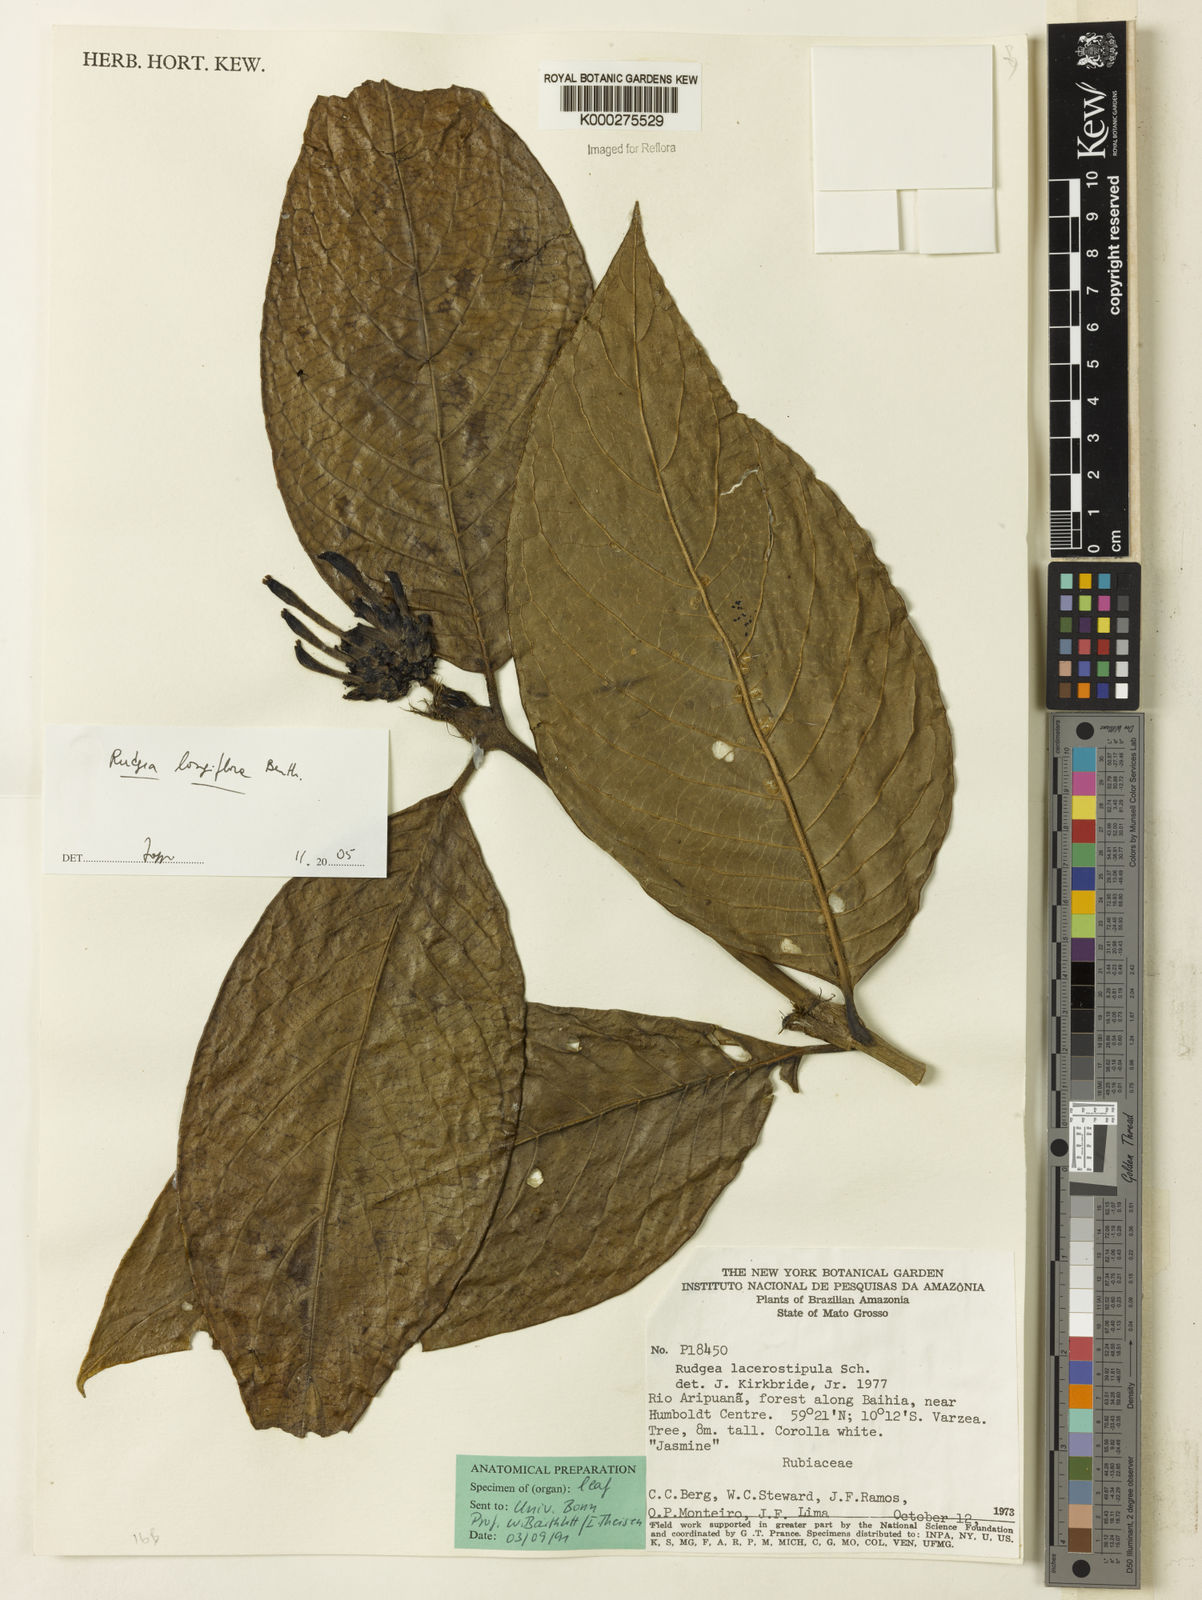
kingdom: Plantae
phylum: Tracheophyta
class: Magnoliopsida
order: Gentianales
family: Rubiaceae
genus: Rudgea
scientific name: Rudgea longiflora
